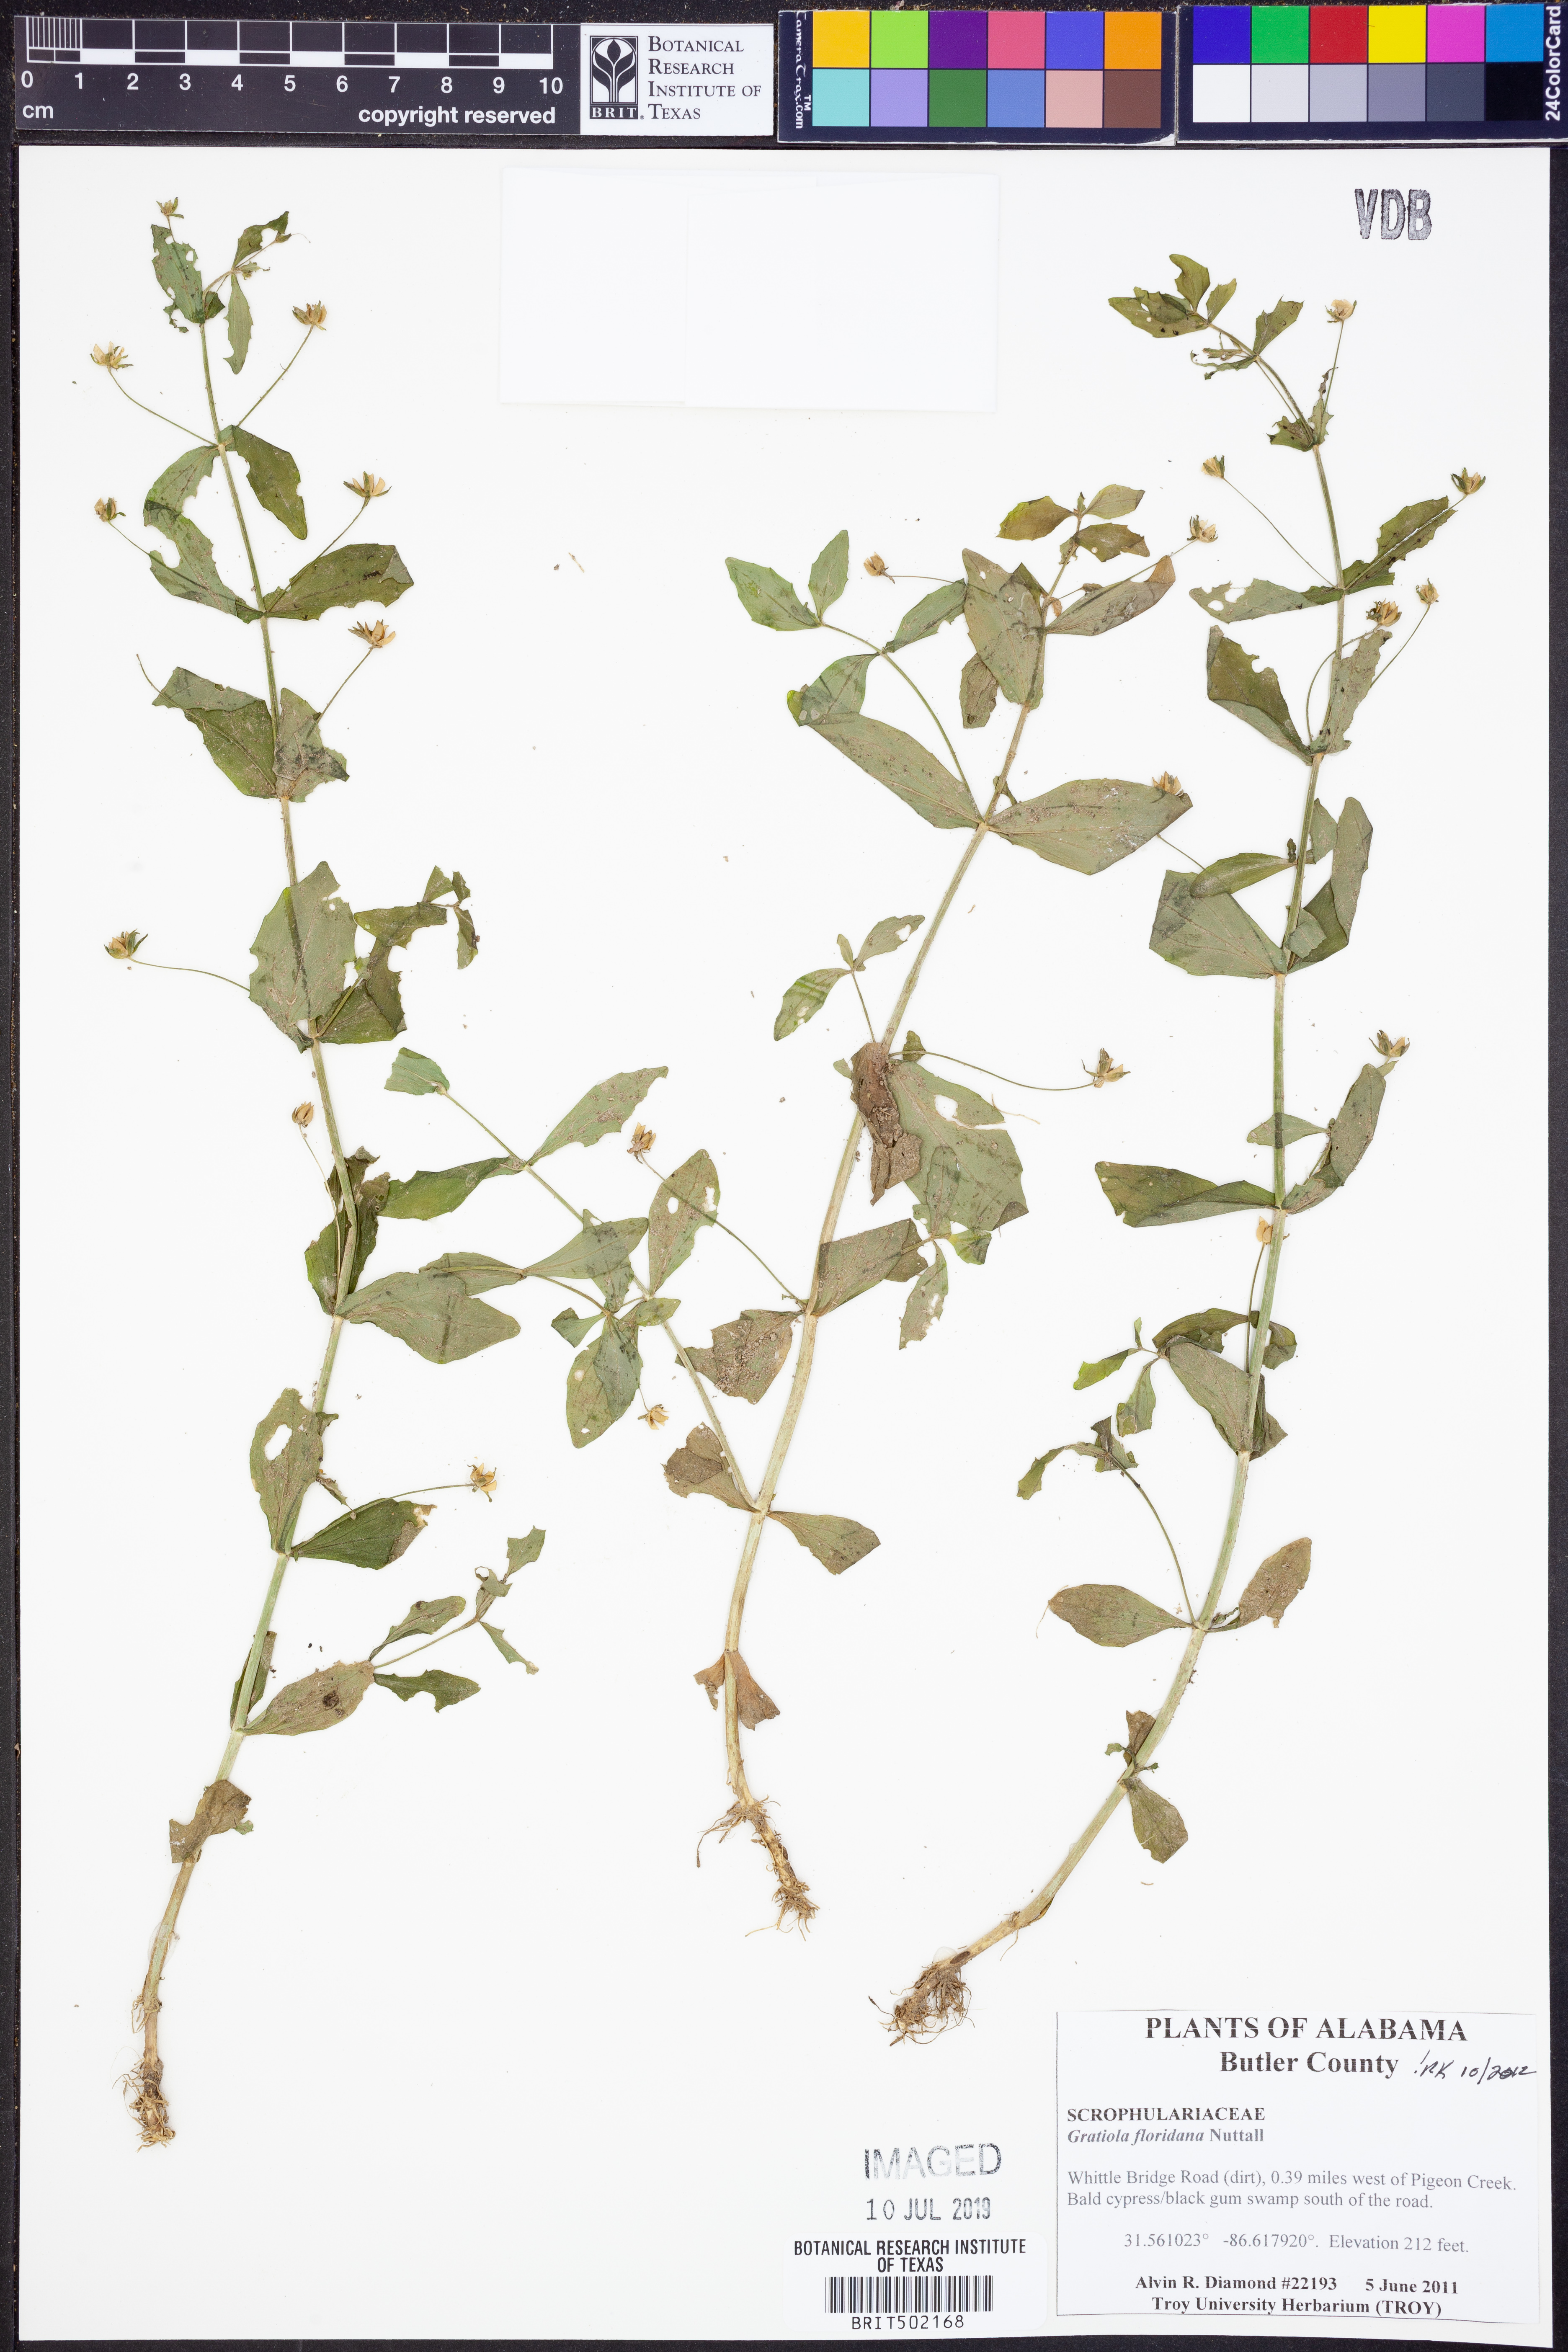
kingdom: Plantae
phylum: Tracheophyta
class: Magnoliopsida
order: Lamiales
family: Plantaginaceae
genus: Gratiola
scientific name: Gratiola floridana
